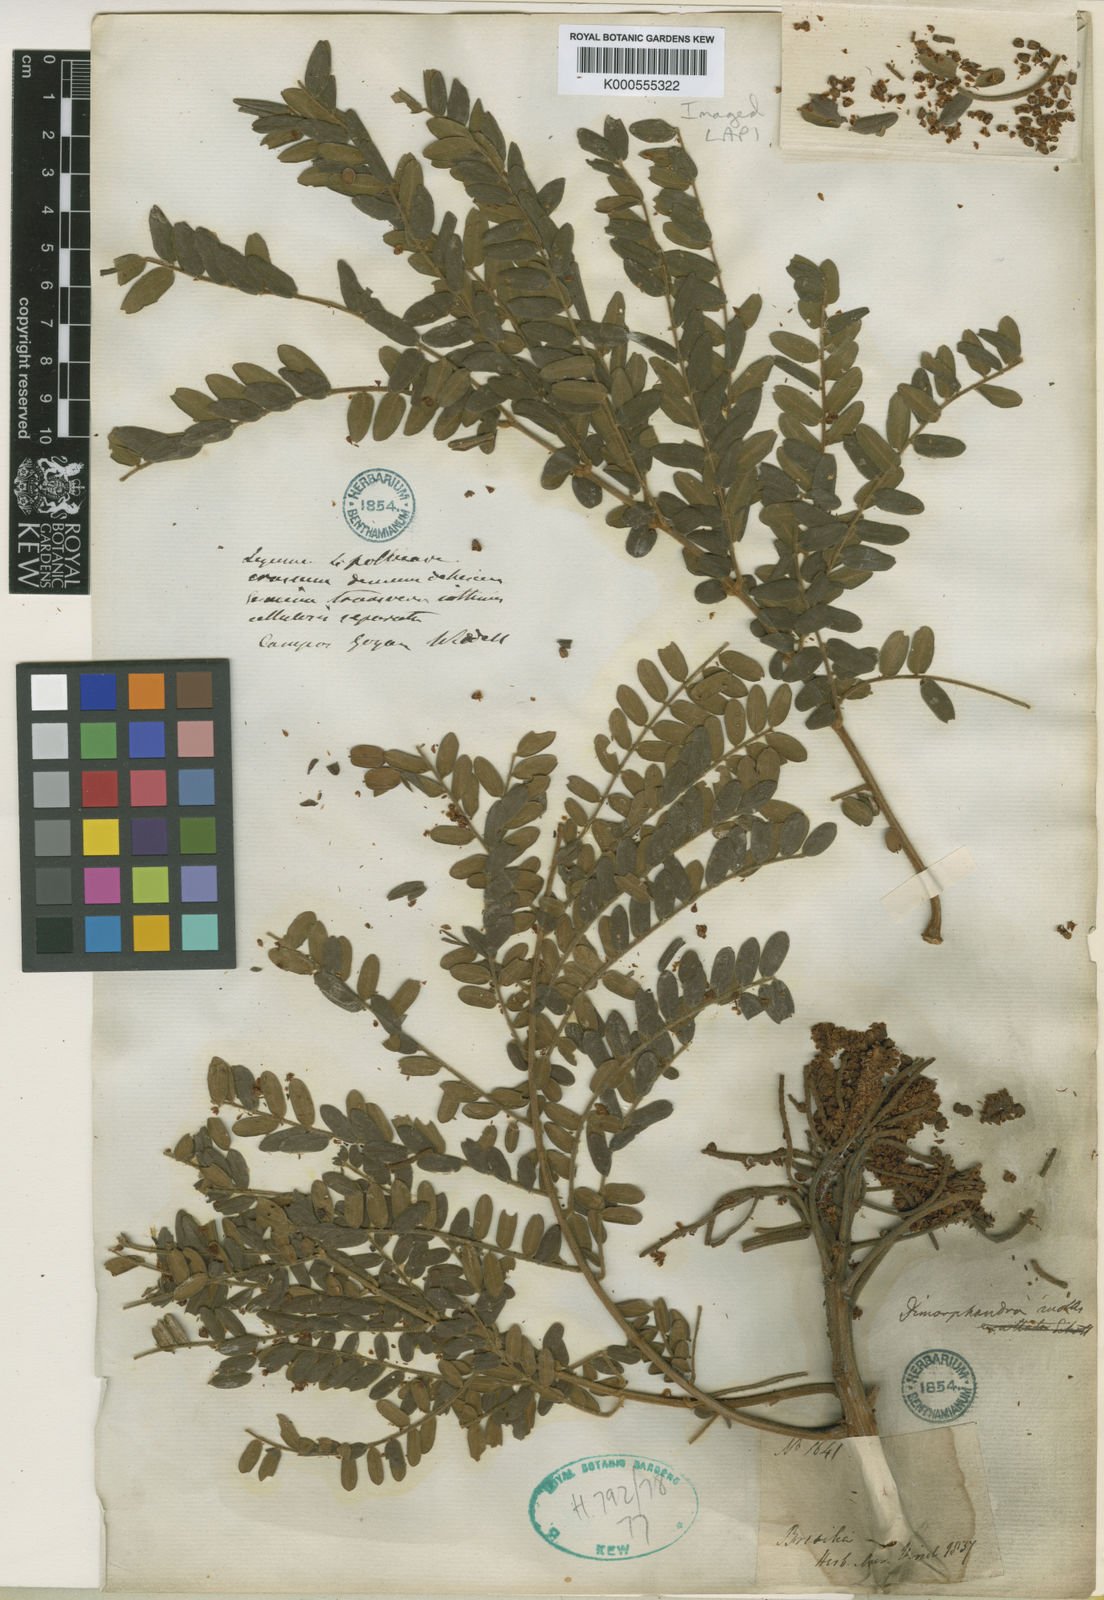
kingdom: Plantae
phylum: Tracheophyta
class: Magnoliopsida
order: Fabales
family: Fabaceae
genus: Dimorphandra
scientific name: Dimorphandra mollis
